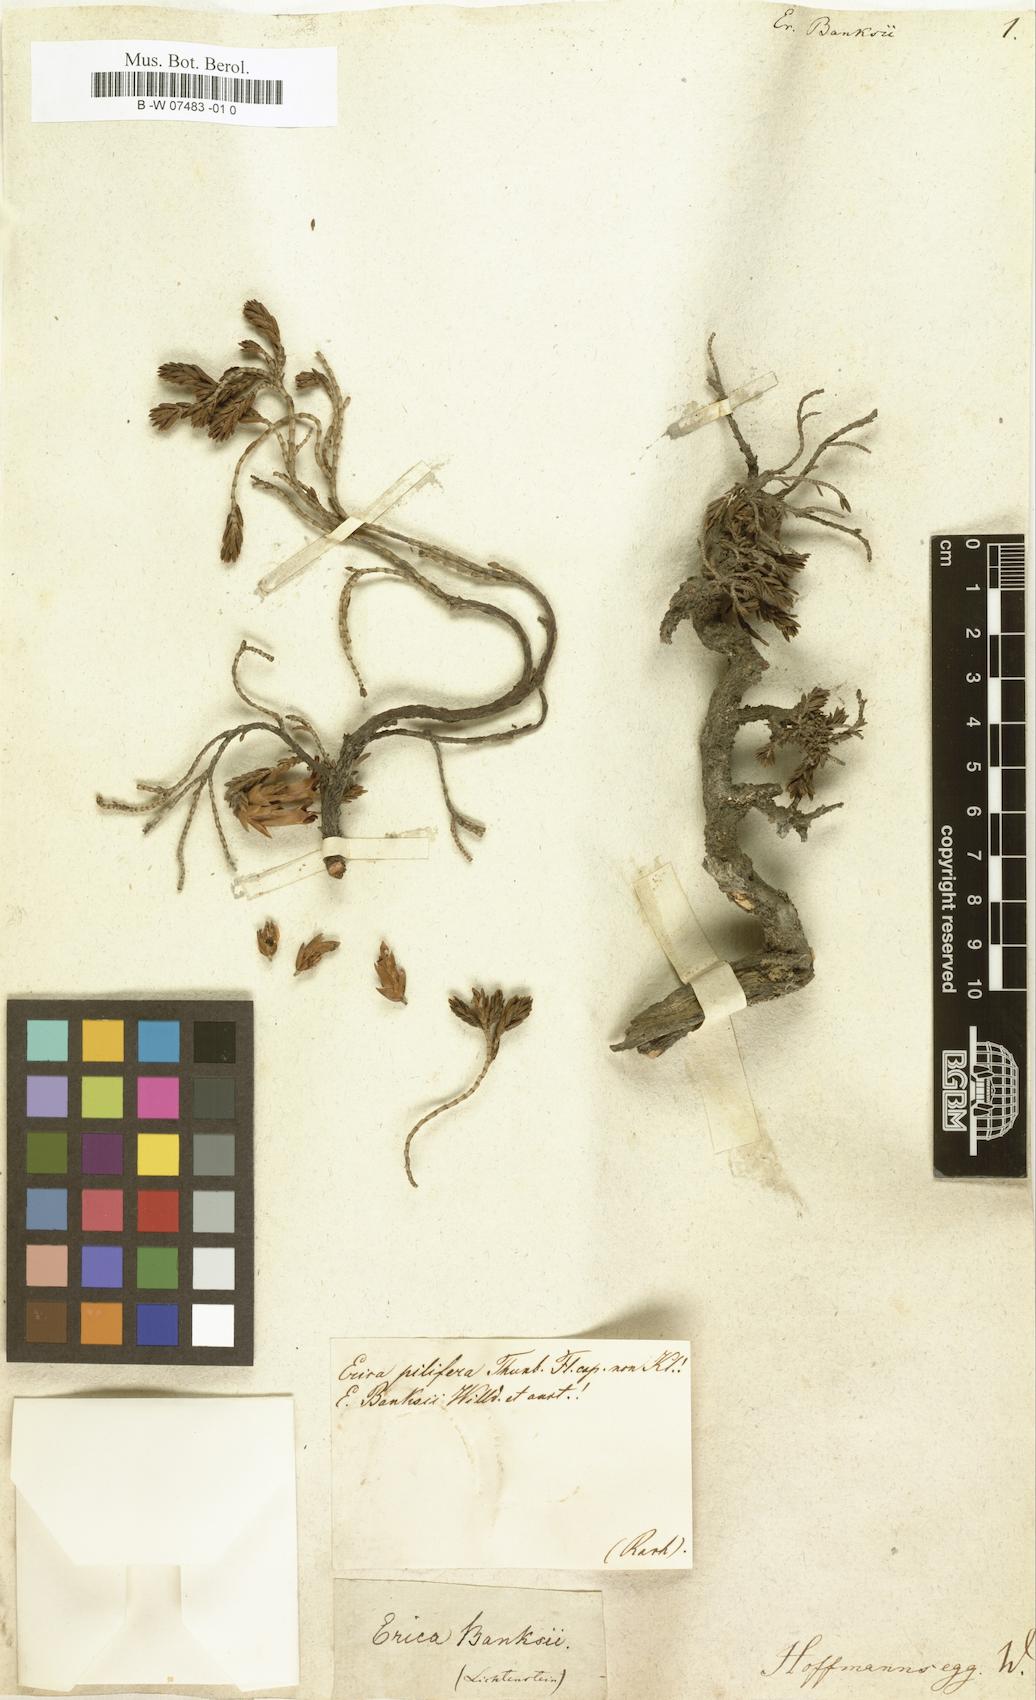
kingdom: Plantae
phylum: Tracheophyta
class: Magnoliopsida
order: Ericales
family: Ericaceae
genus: Erica
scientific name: Erica banksii
